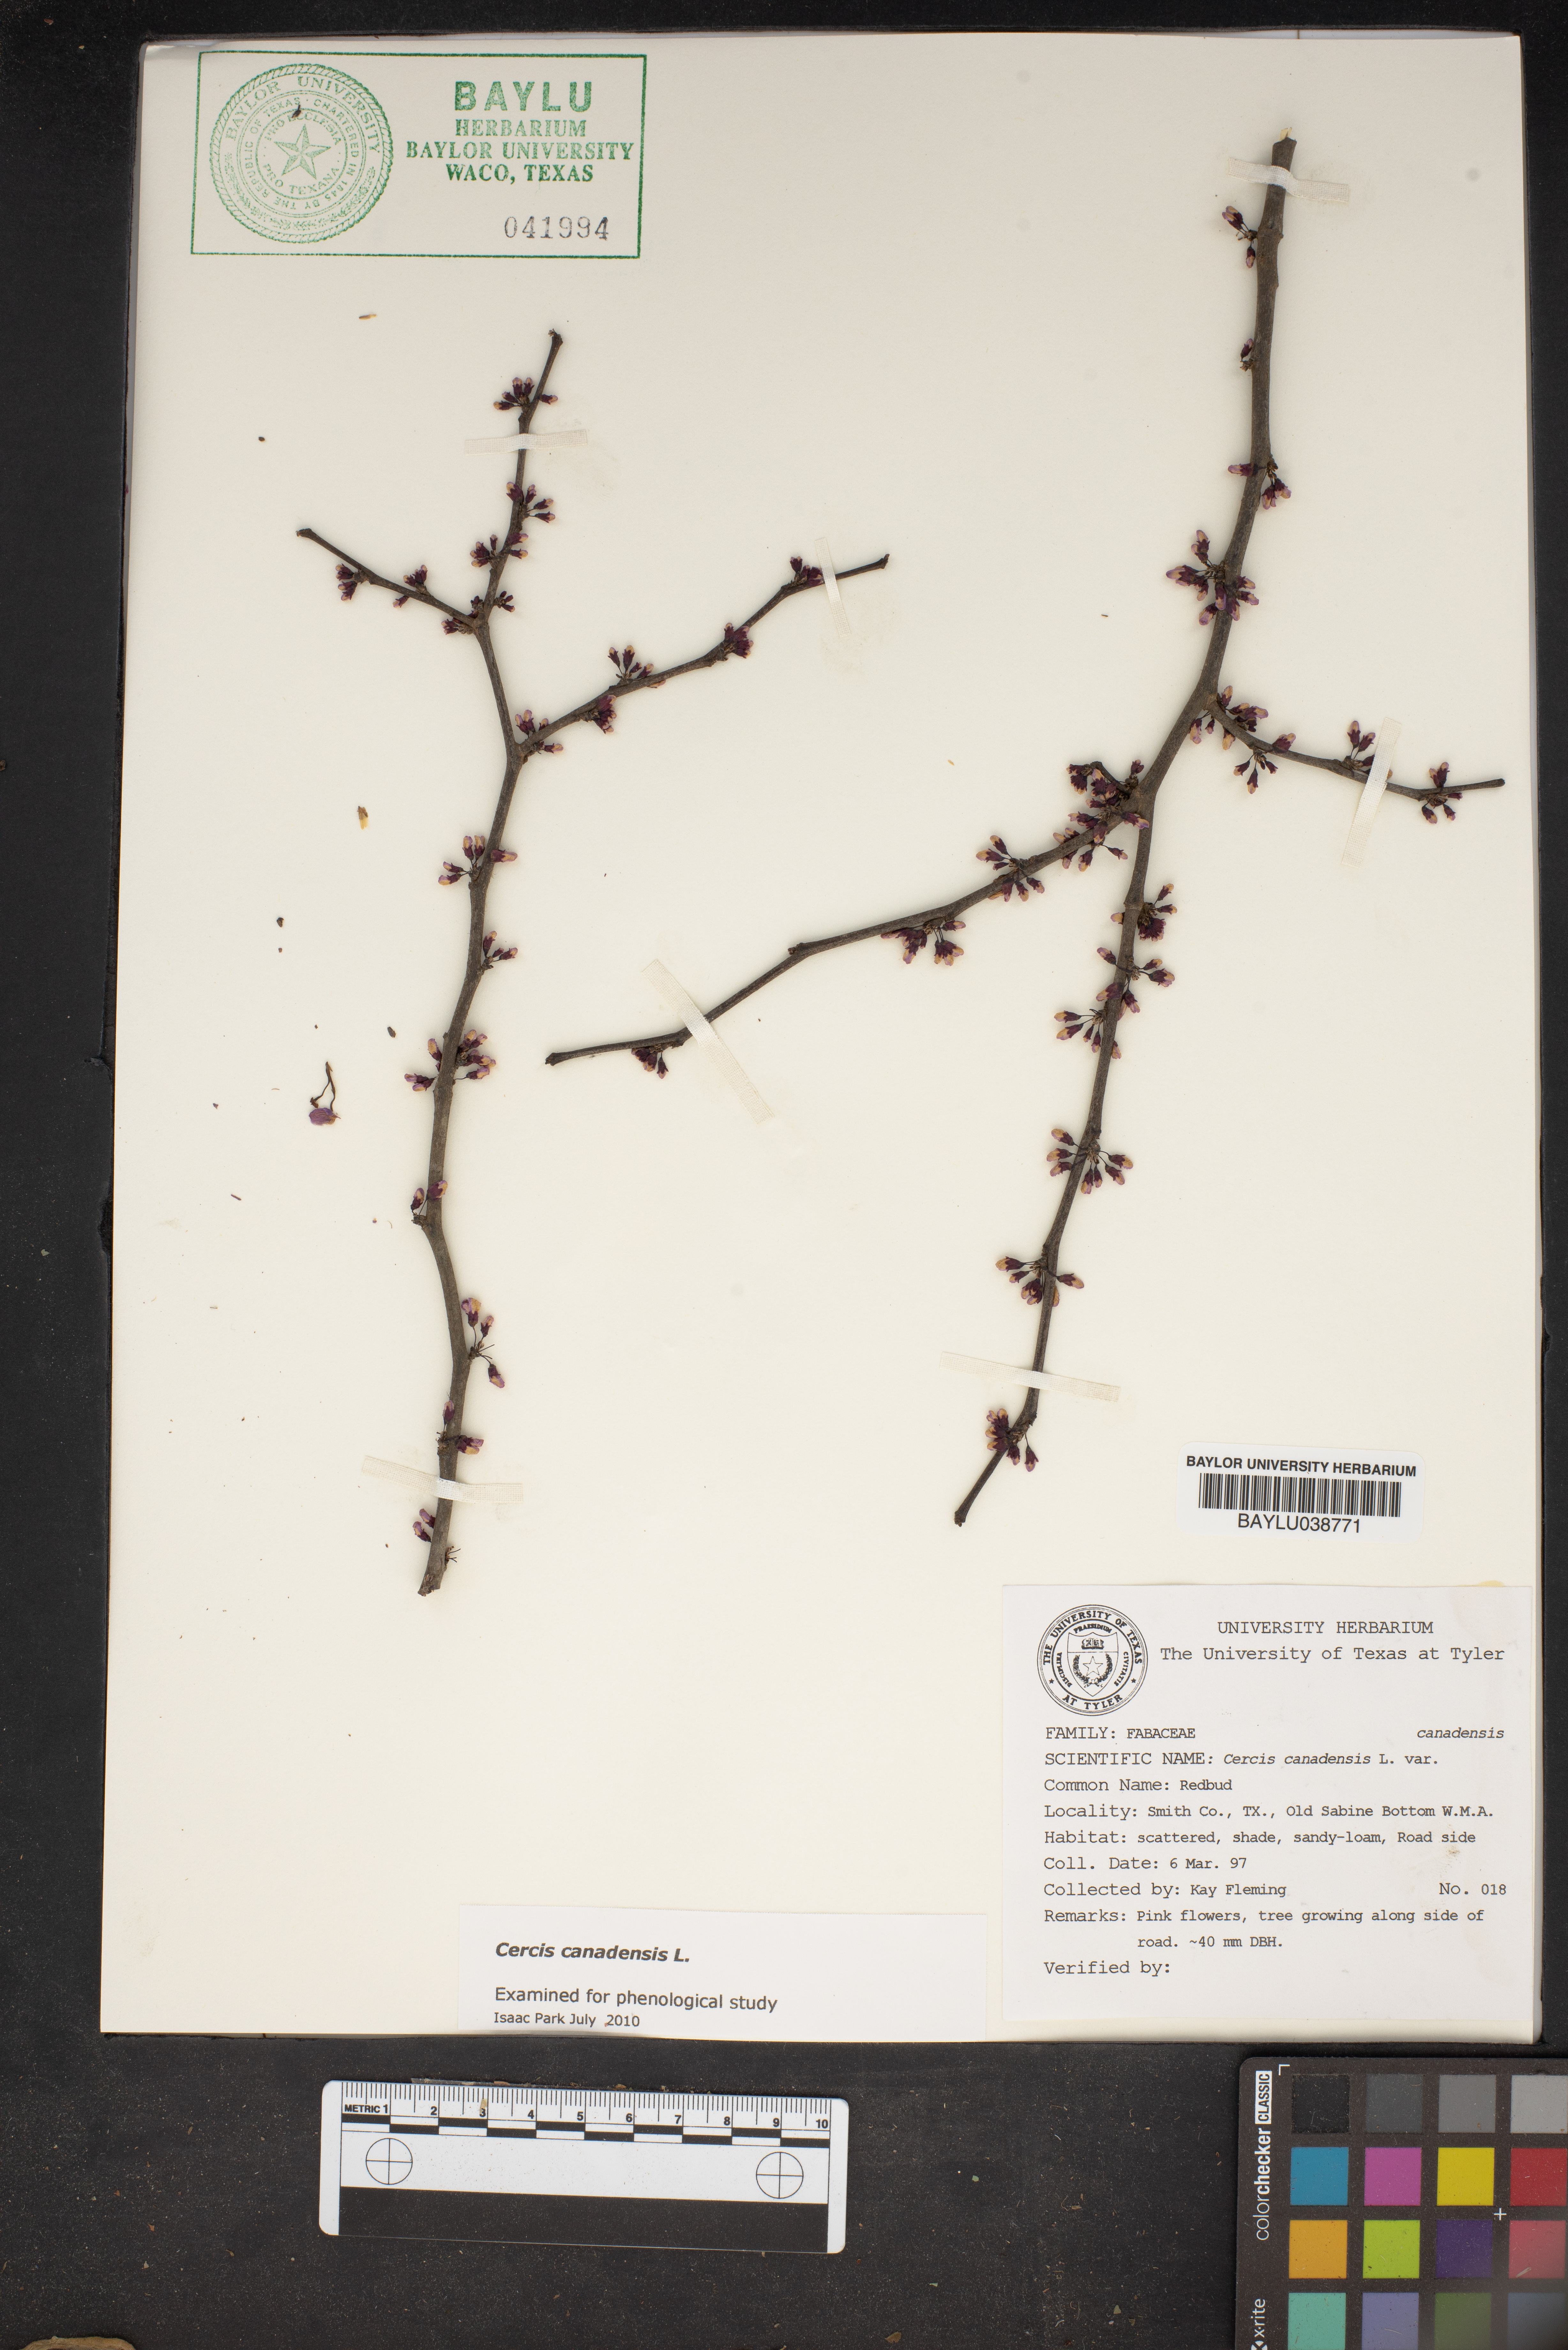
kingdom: Plantae
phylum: Tracheophyta
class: Magnoliopsida
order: Fabales
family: Fabaceae
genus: Cercis
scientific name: Cercis canadensis
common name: Eastern redbud
